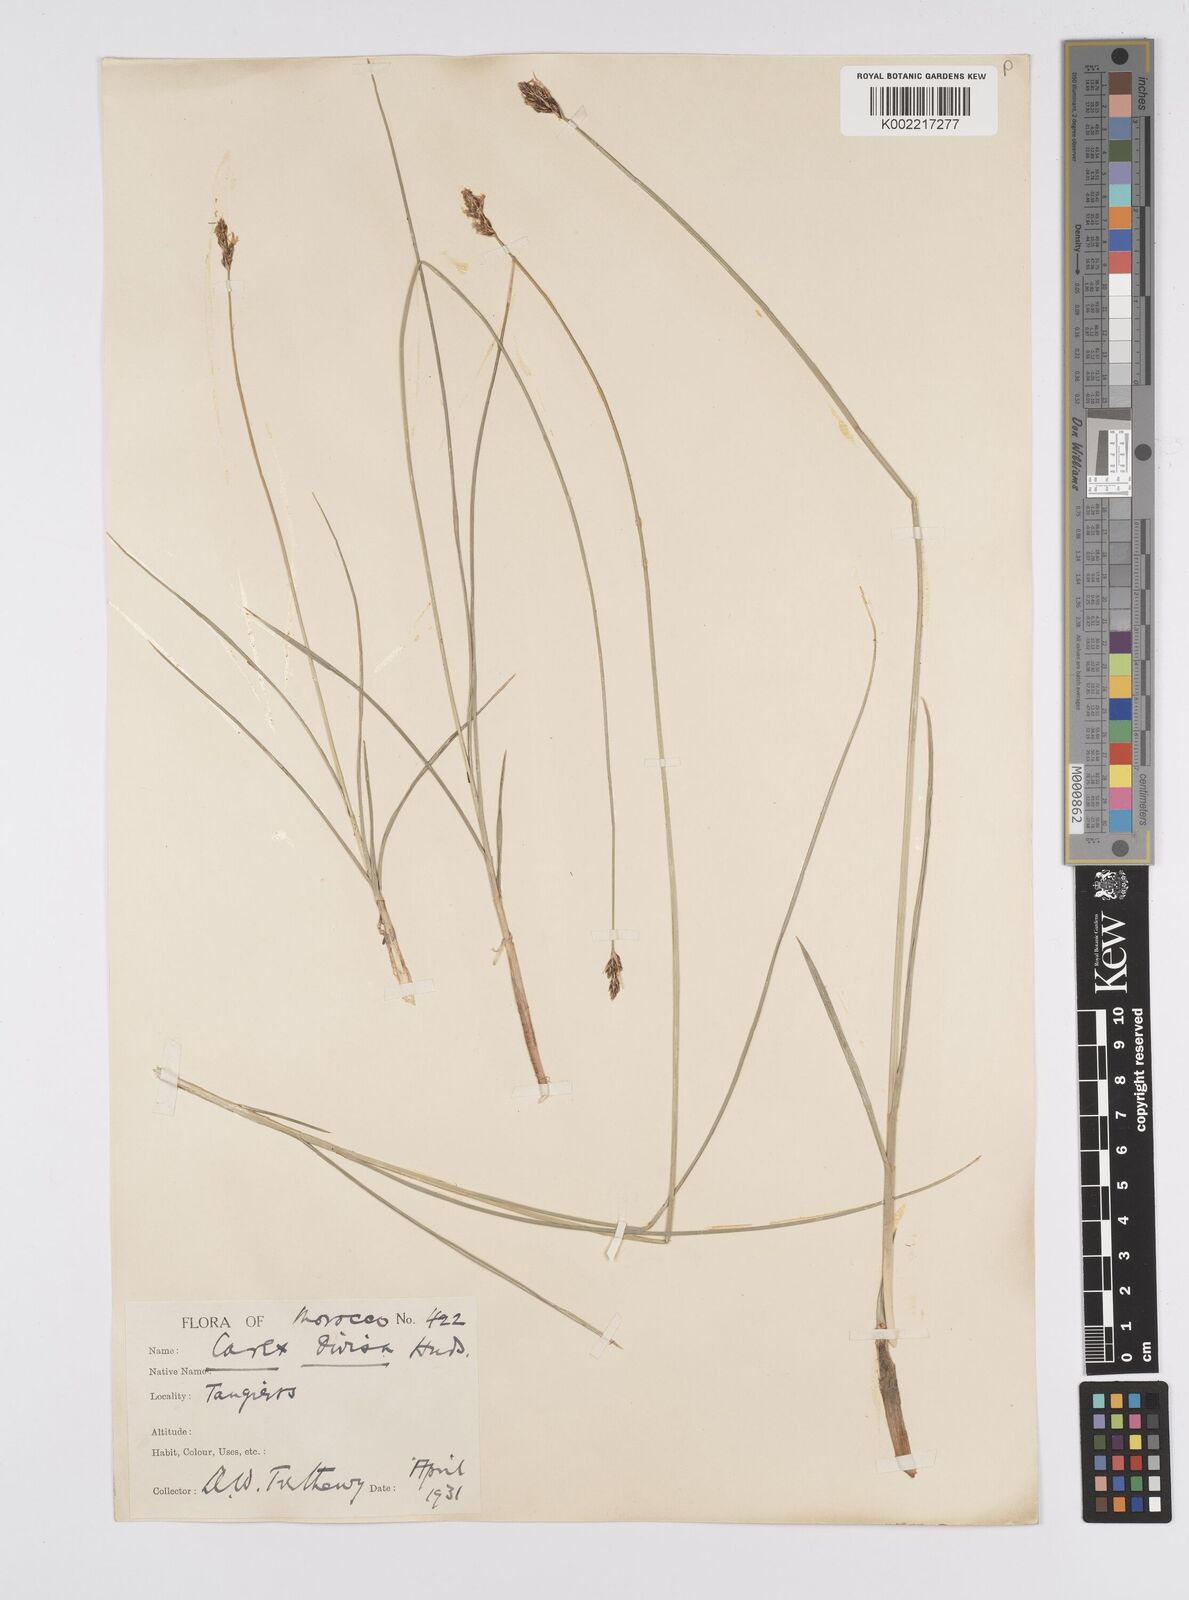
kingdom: Plantae
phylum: Tracheophyta
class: Liliopsida
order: Poales
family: Cyperaceae
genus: Carex
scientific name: Carex divisa
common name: Divided sedge
